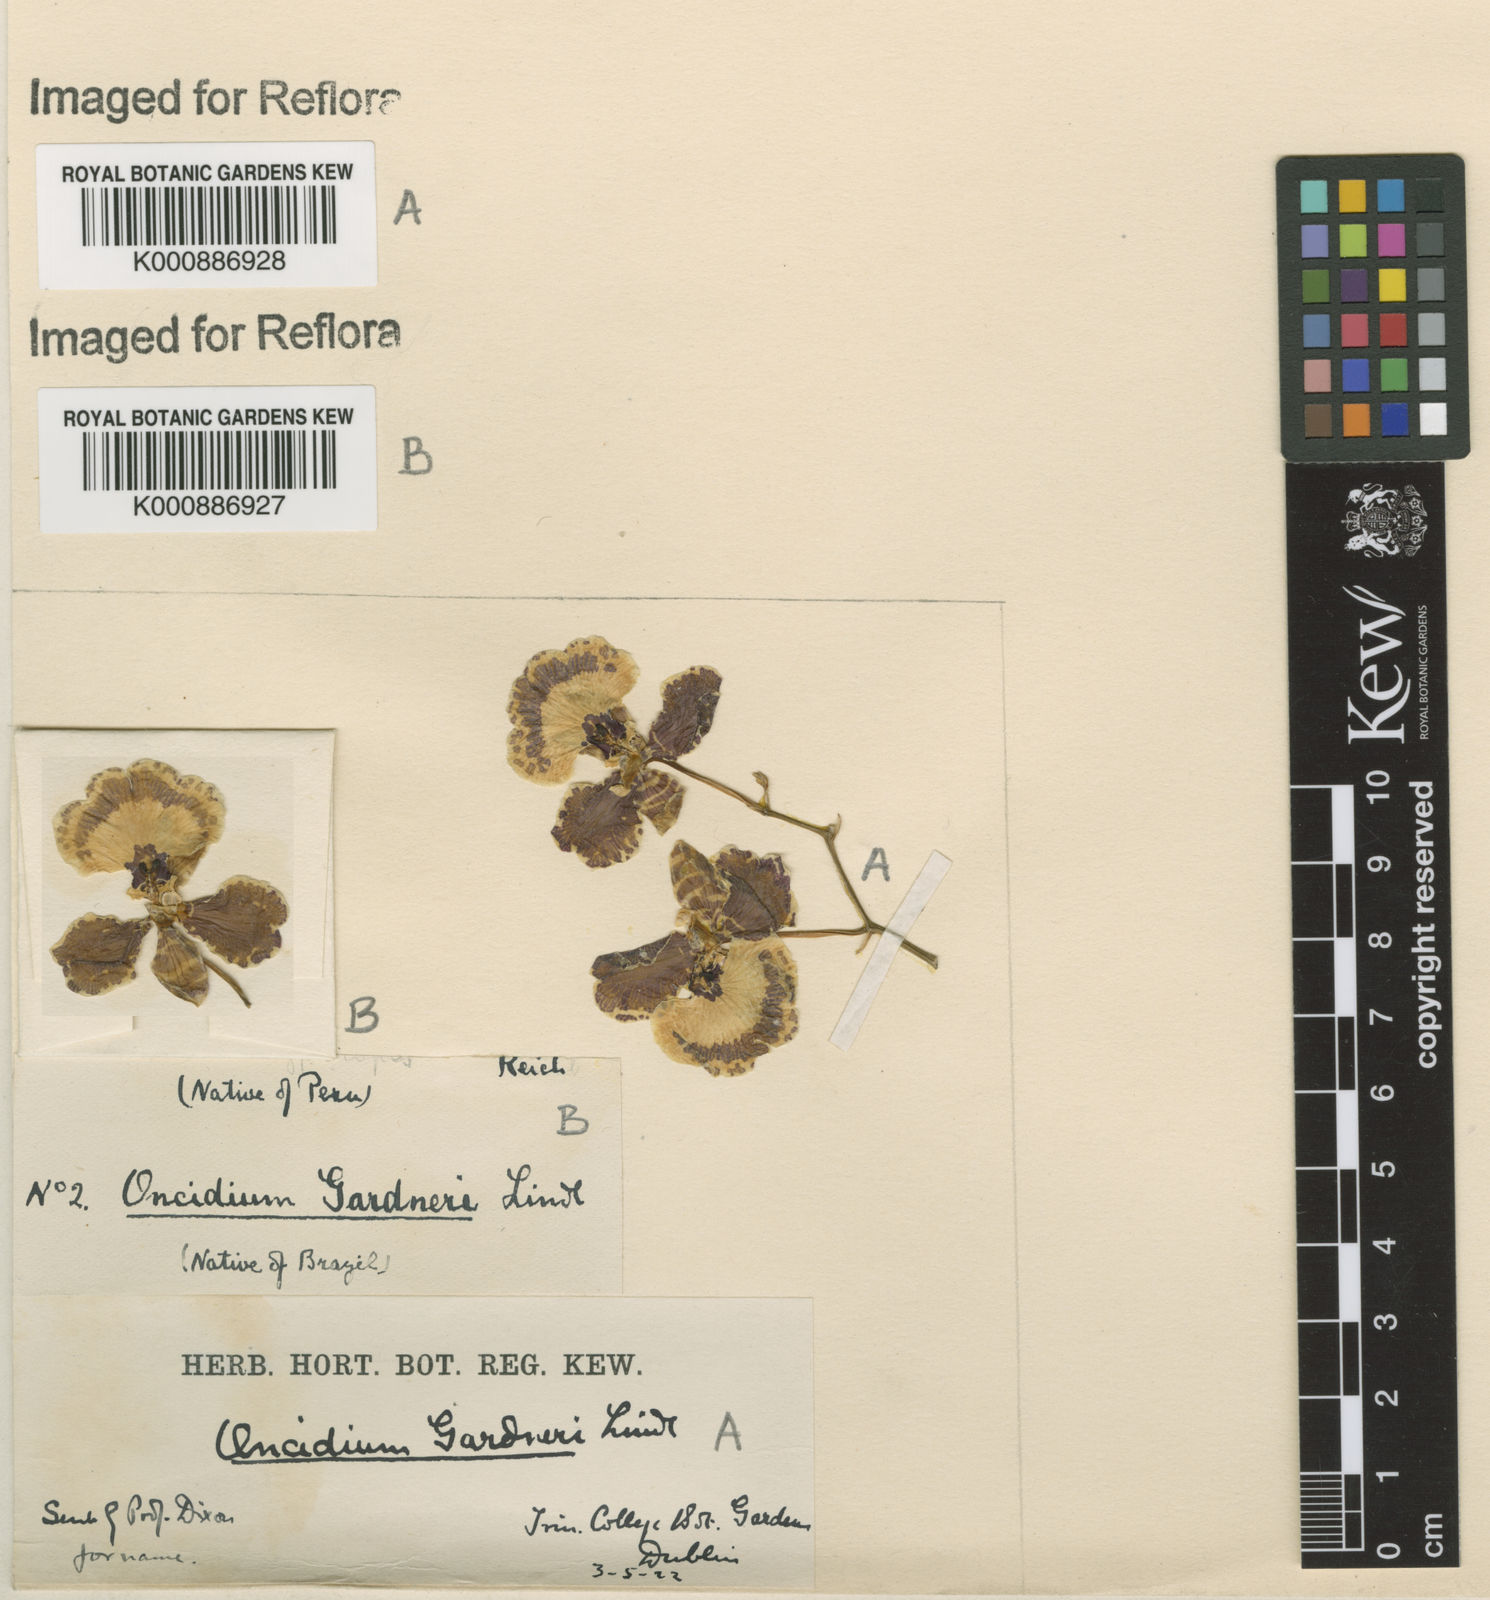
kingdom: Plantae
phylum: Tracheophyta
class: Liliopsida
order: Asparagales
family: Orchidaceae
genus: Gomesa
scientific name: Gomesa gardneri
